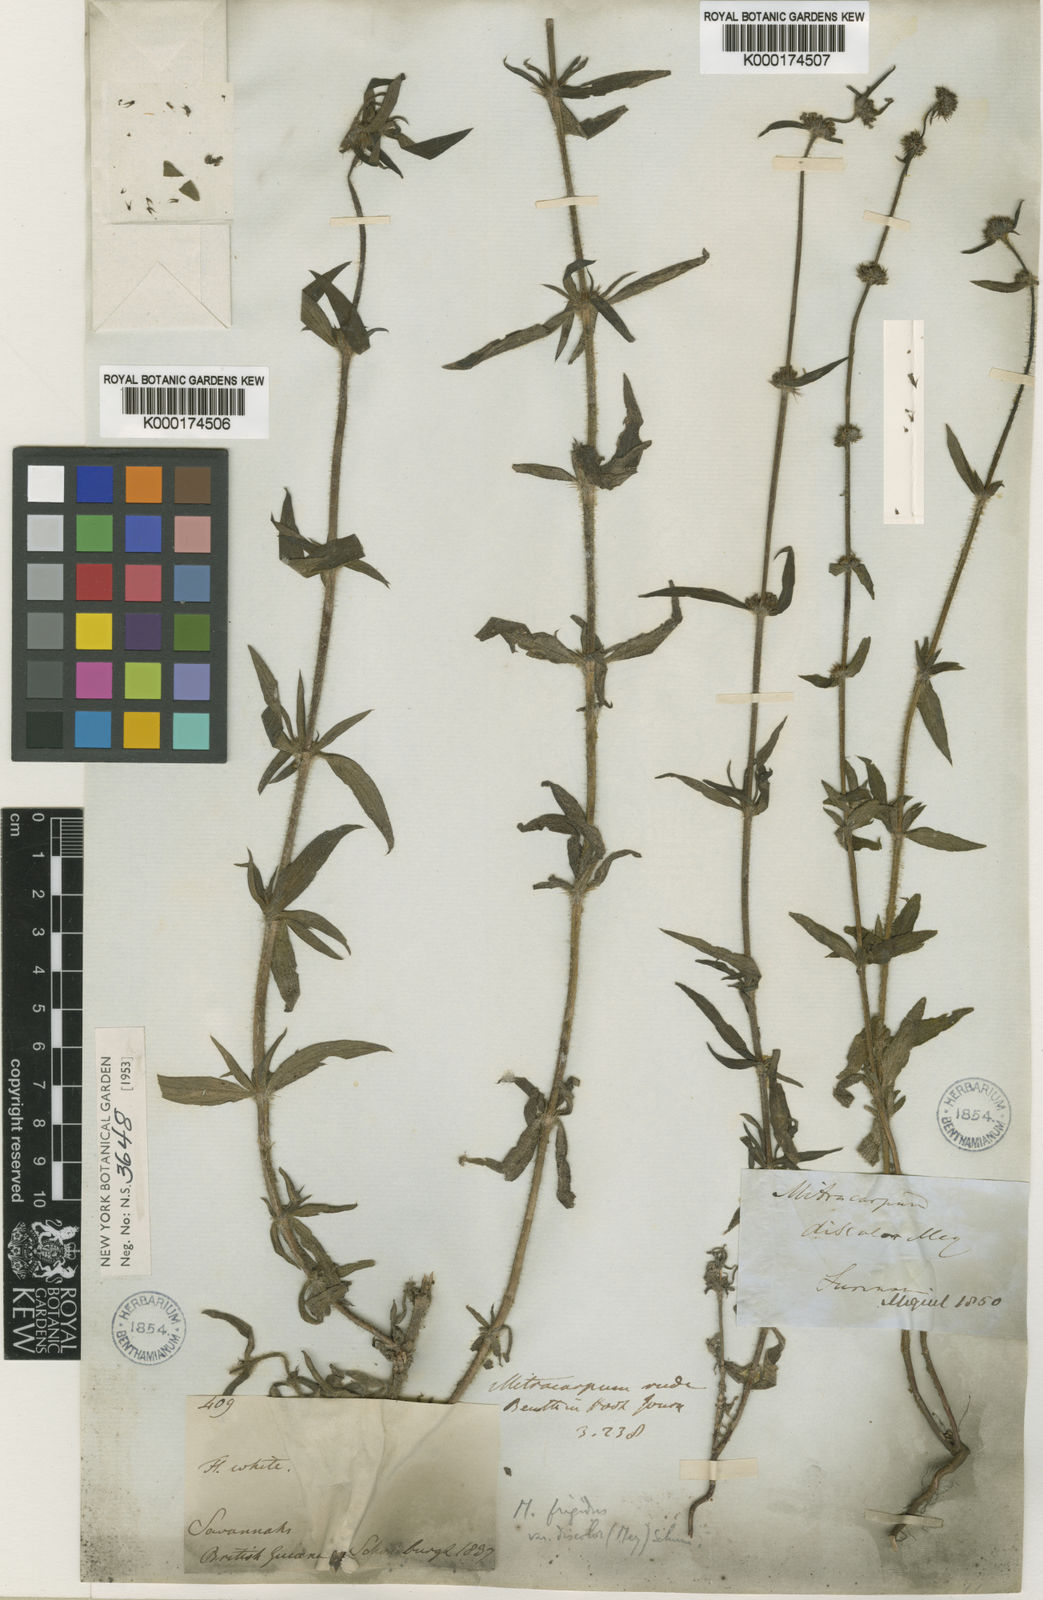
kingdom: Plantae
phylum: Tracheophyta
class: Magnoliopsida
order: Gentianales
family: Rubiaceae
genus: Mitracarpus
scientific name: Mitracarpus salzmannianus
